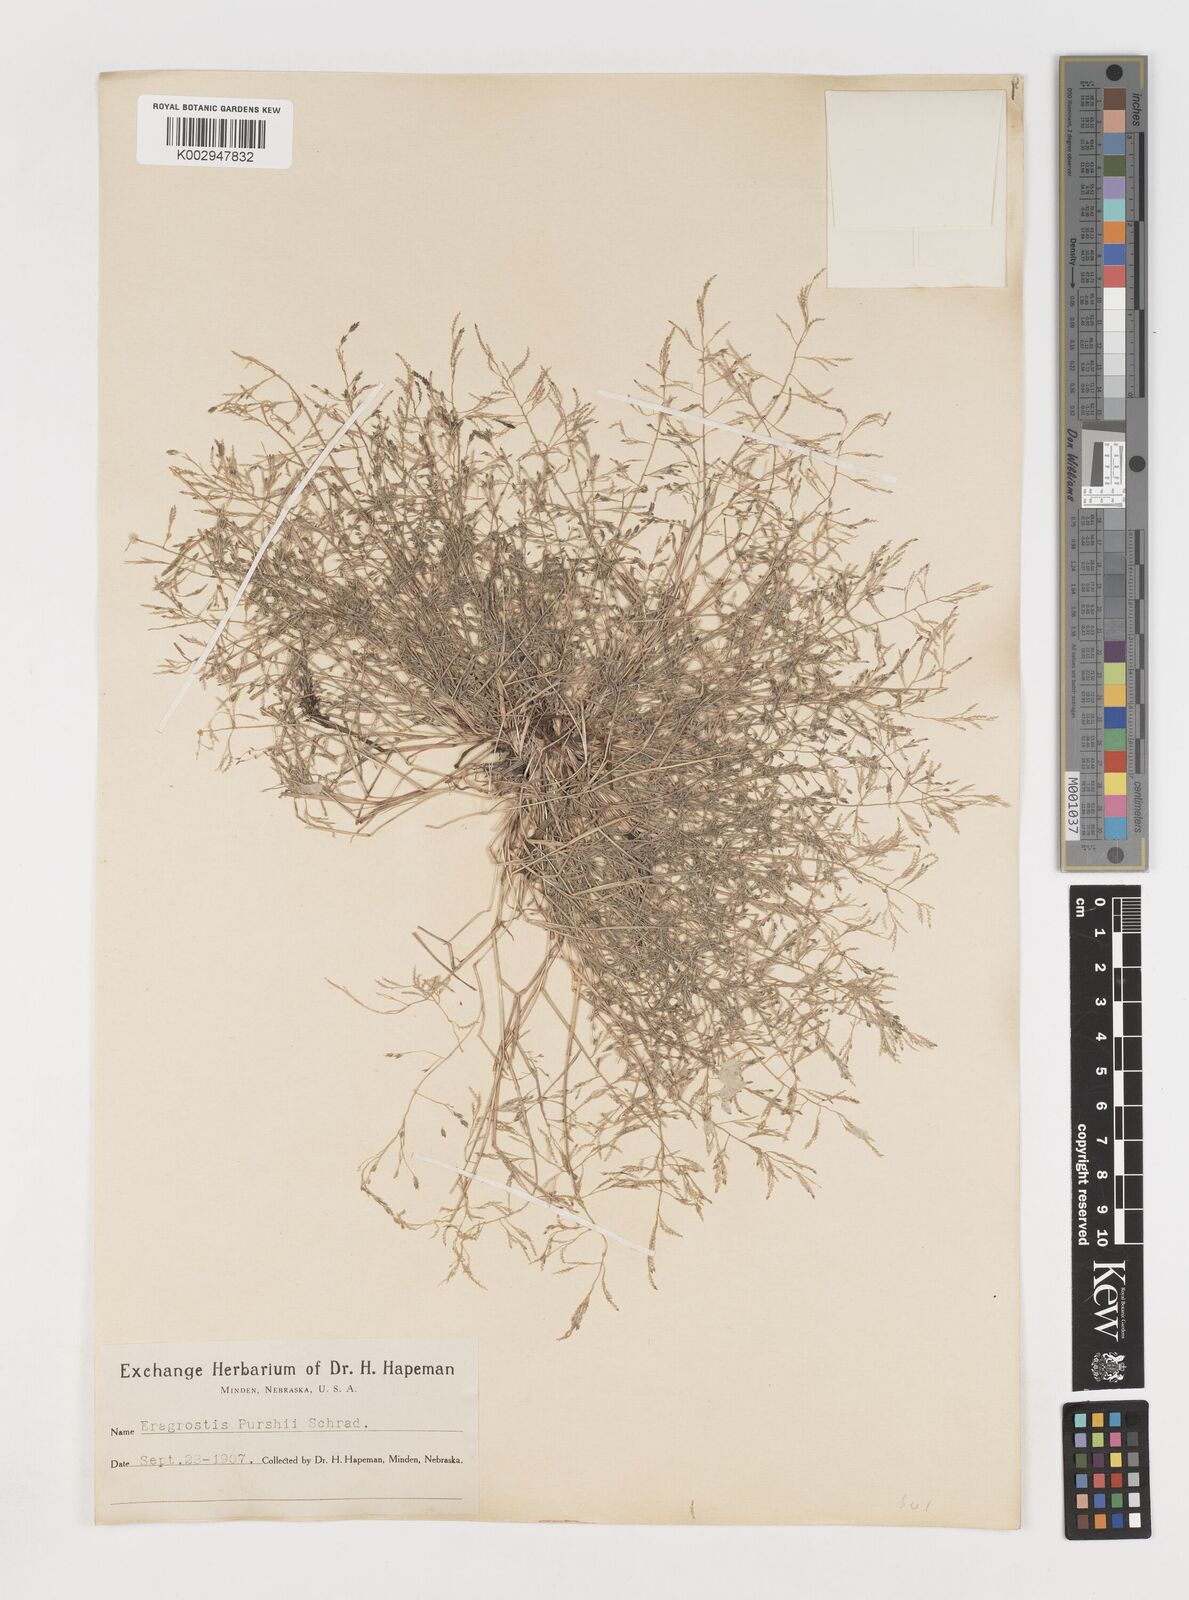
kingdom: Plantae
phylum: Tracheophyta
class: Liliopsida
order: Poales
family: Poaceae
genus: Eragrostis
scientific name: Eragrostis pectinacea
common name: Tufted lovegrass
